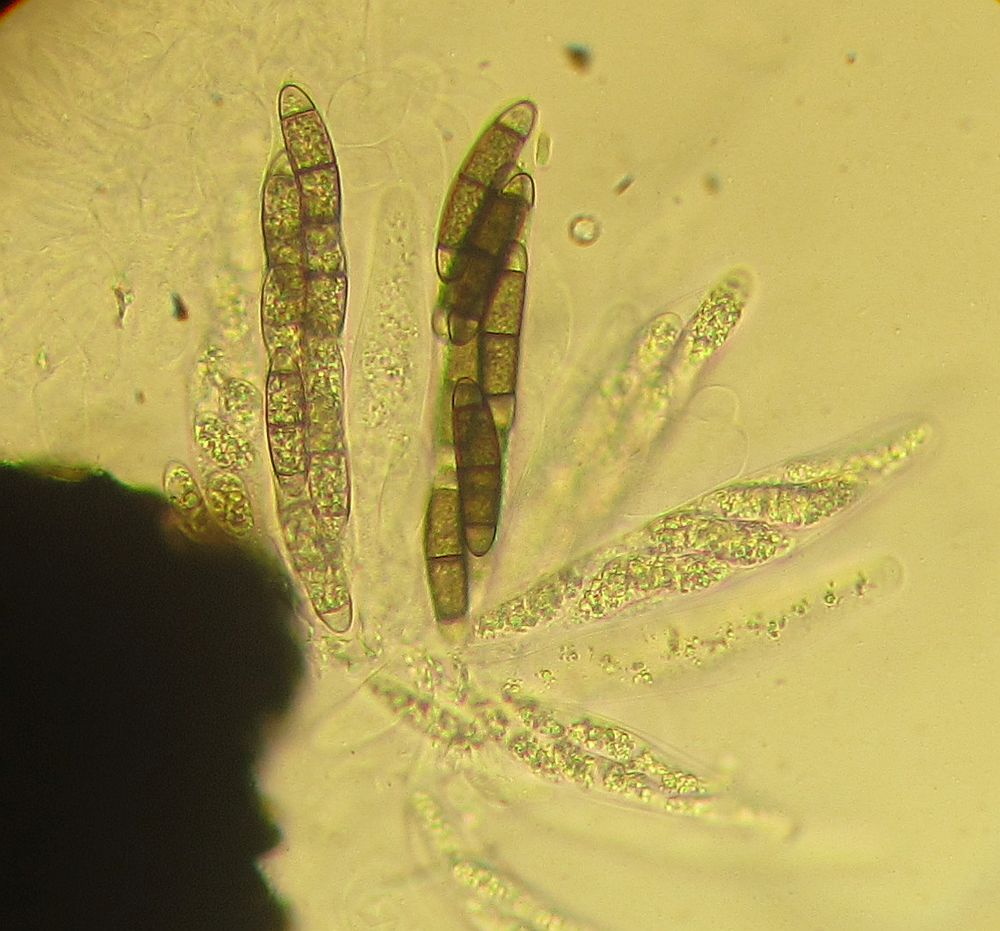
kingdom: Fungi
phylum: Ascomycota
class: Sordariomycetes
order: Coronophorales
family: Chaetosphaerellaceae
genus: Chaetosphaerella
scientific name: Chaetosphaerella phaeostroma
